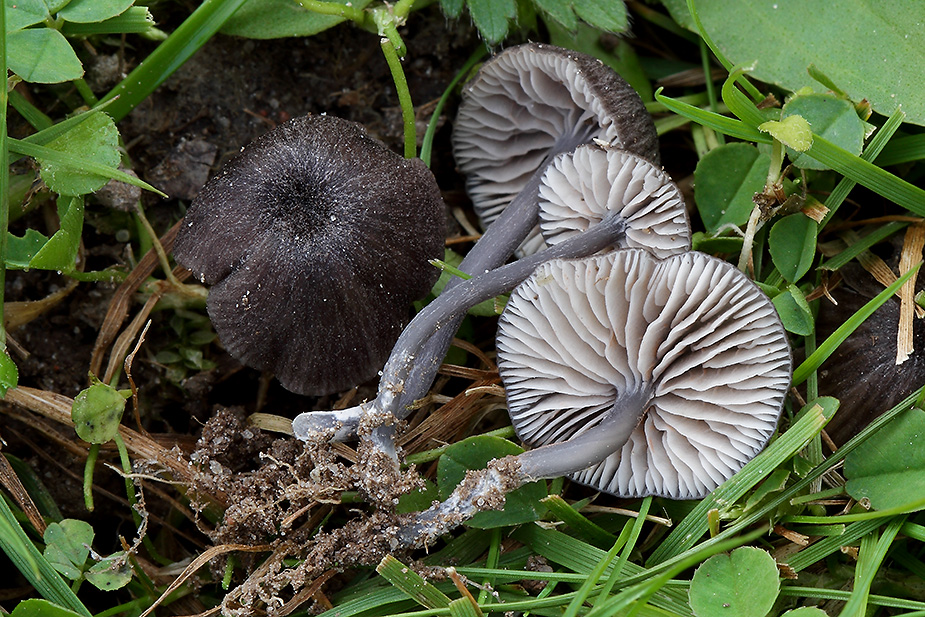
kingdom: Fungi
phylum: Basidiomycota
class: Agaricomycetes
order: Agaricales
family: Entolomataceae
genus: Entoloma
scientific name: Entoloma allospermum
